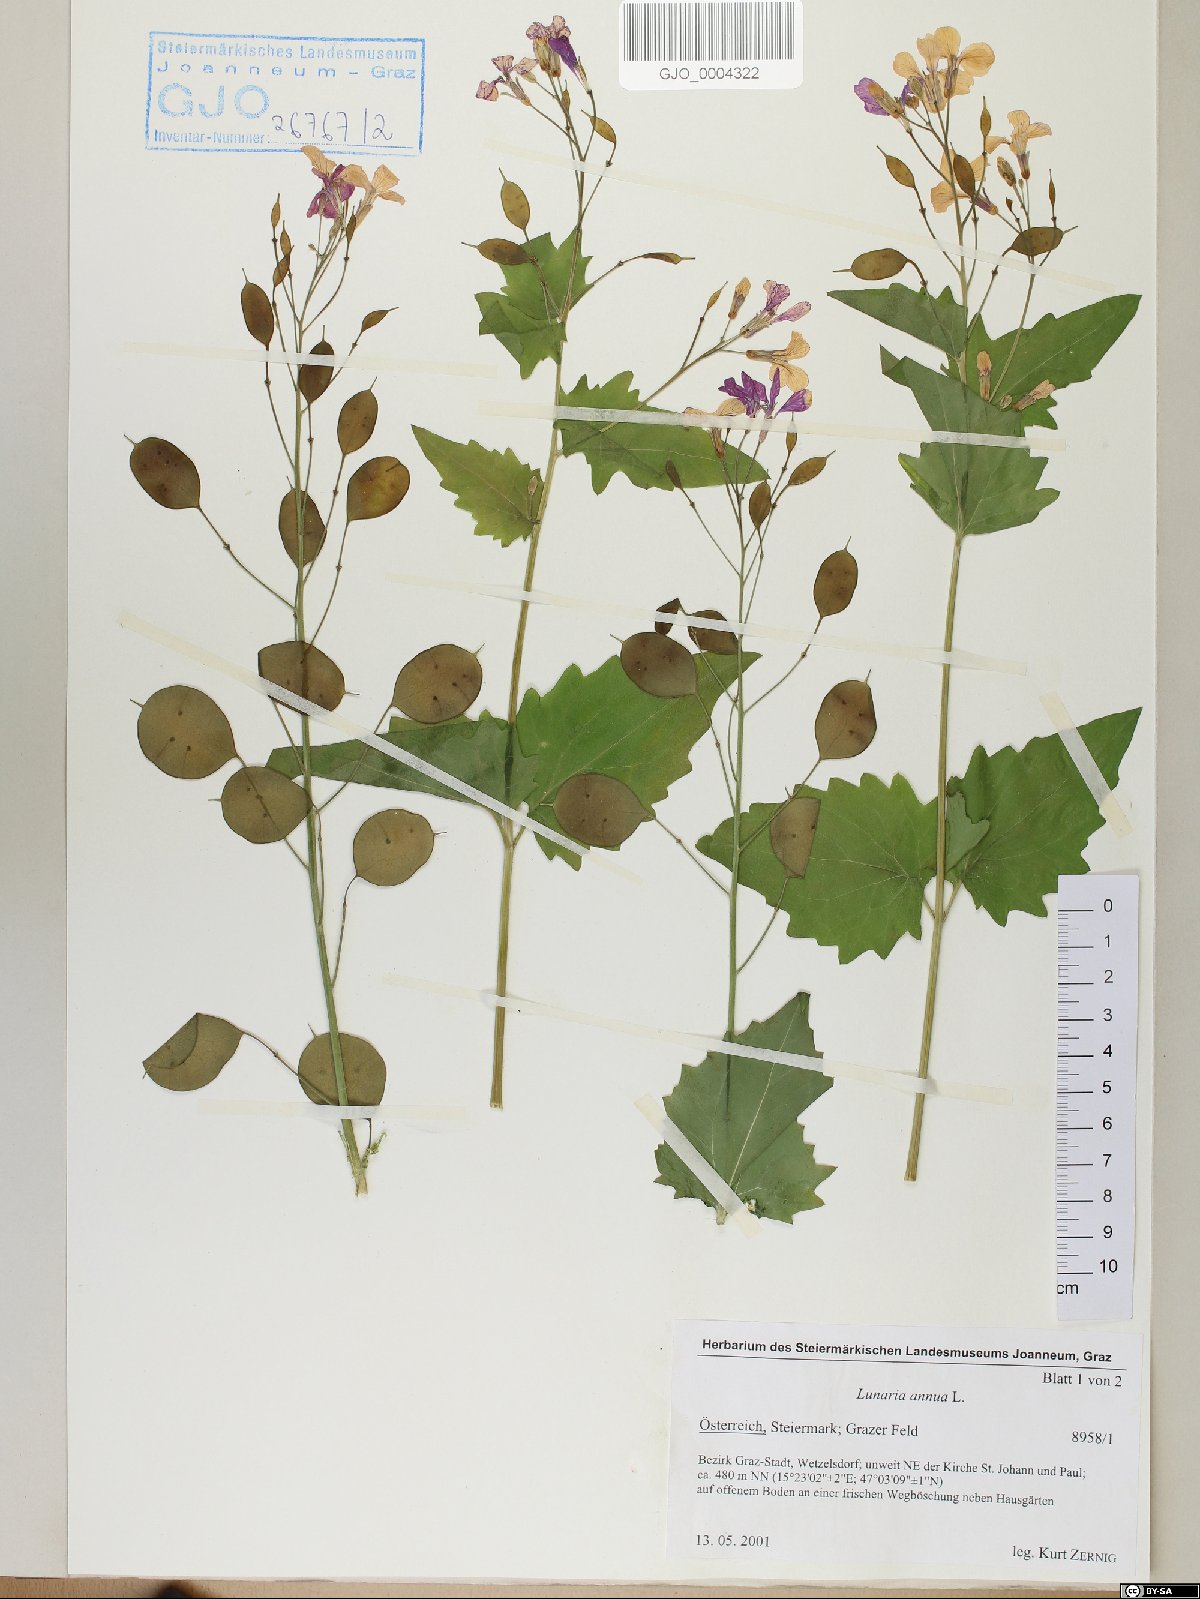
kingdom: Plantae
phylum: Tracheophyta
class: Magnoliopsida
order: Brassicales
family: Brassicaceae
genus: Lunaria
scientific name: Lunaria annua
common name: Honesty
